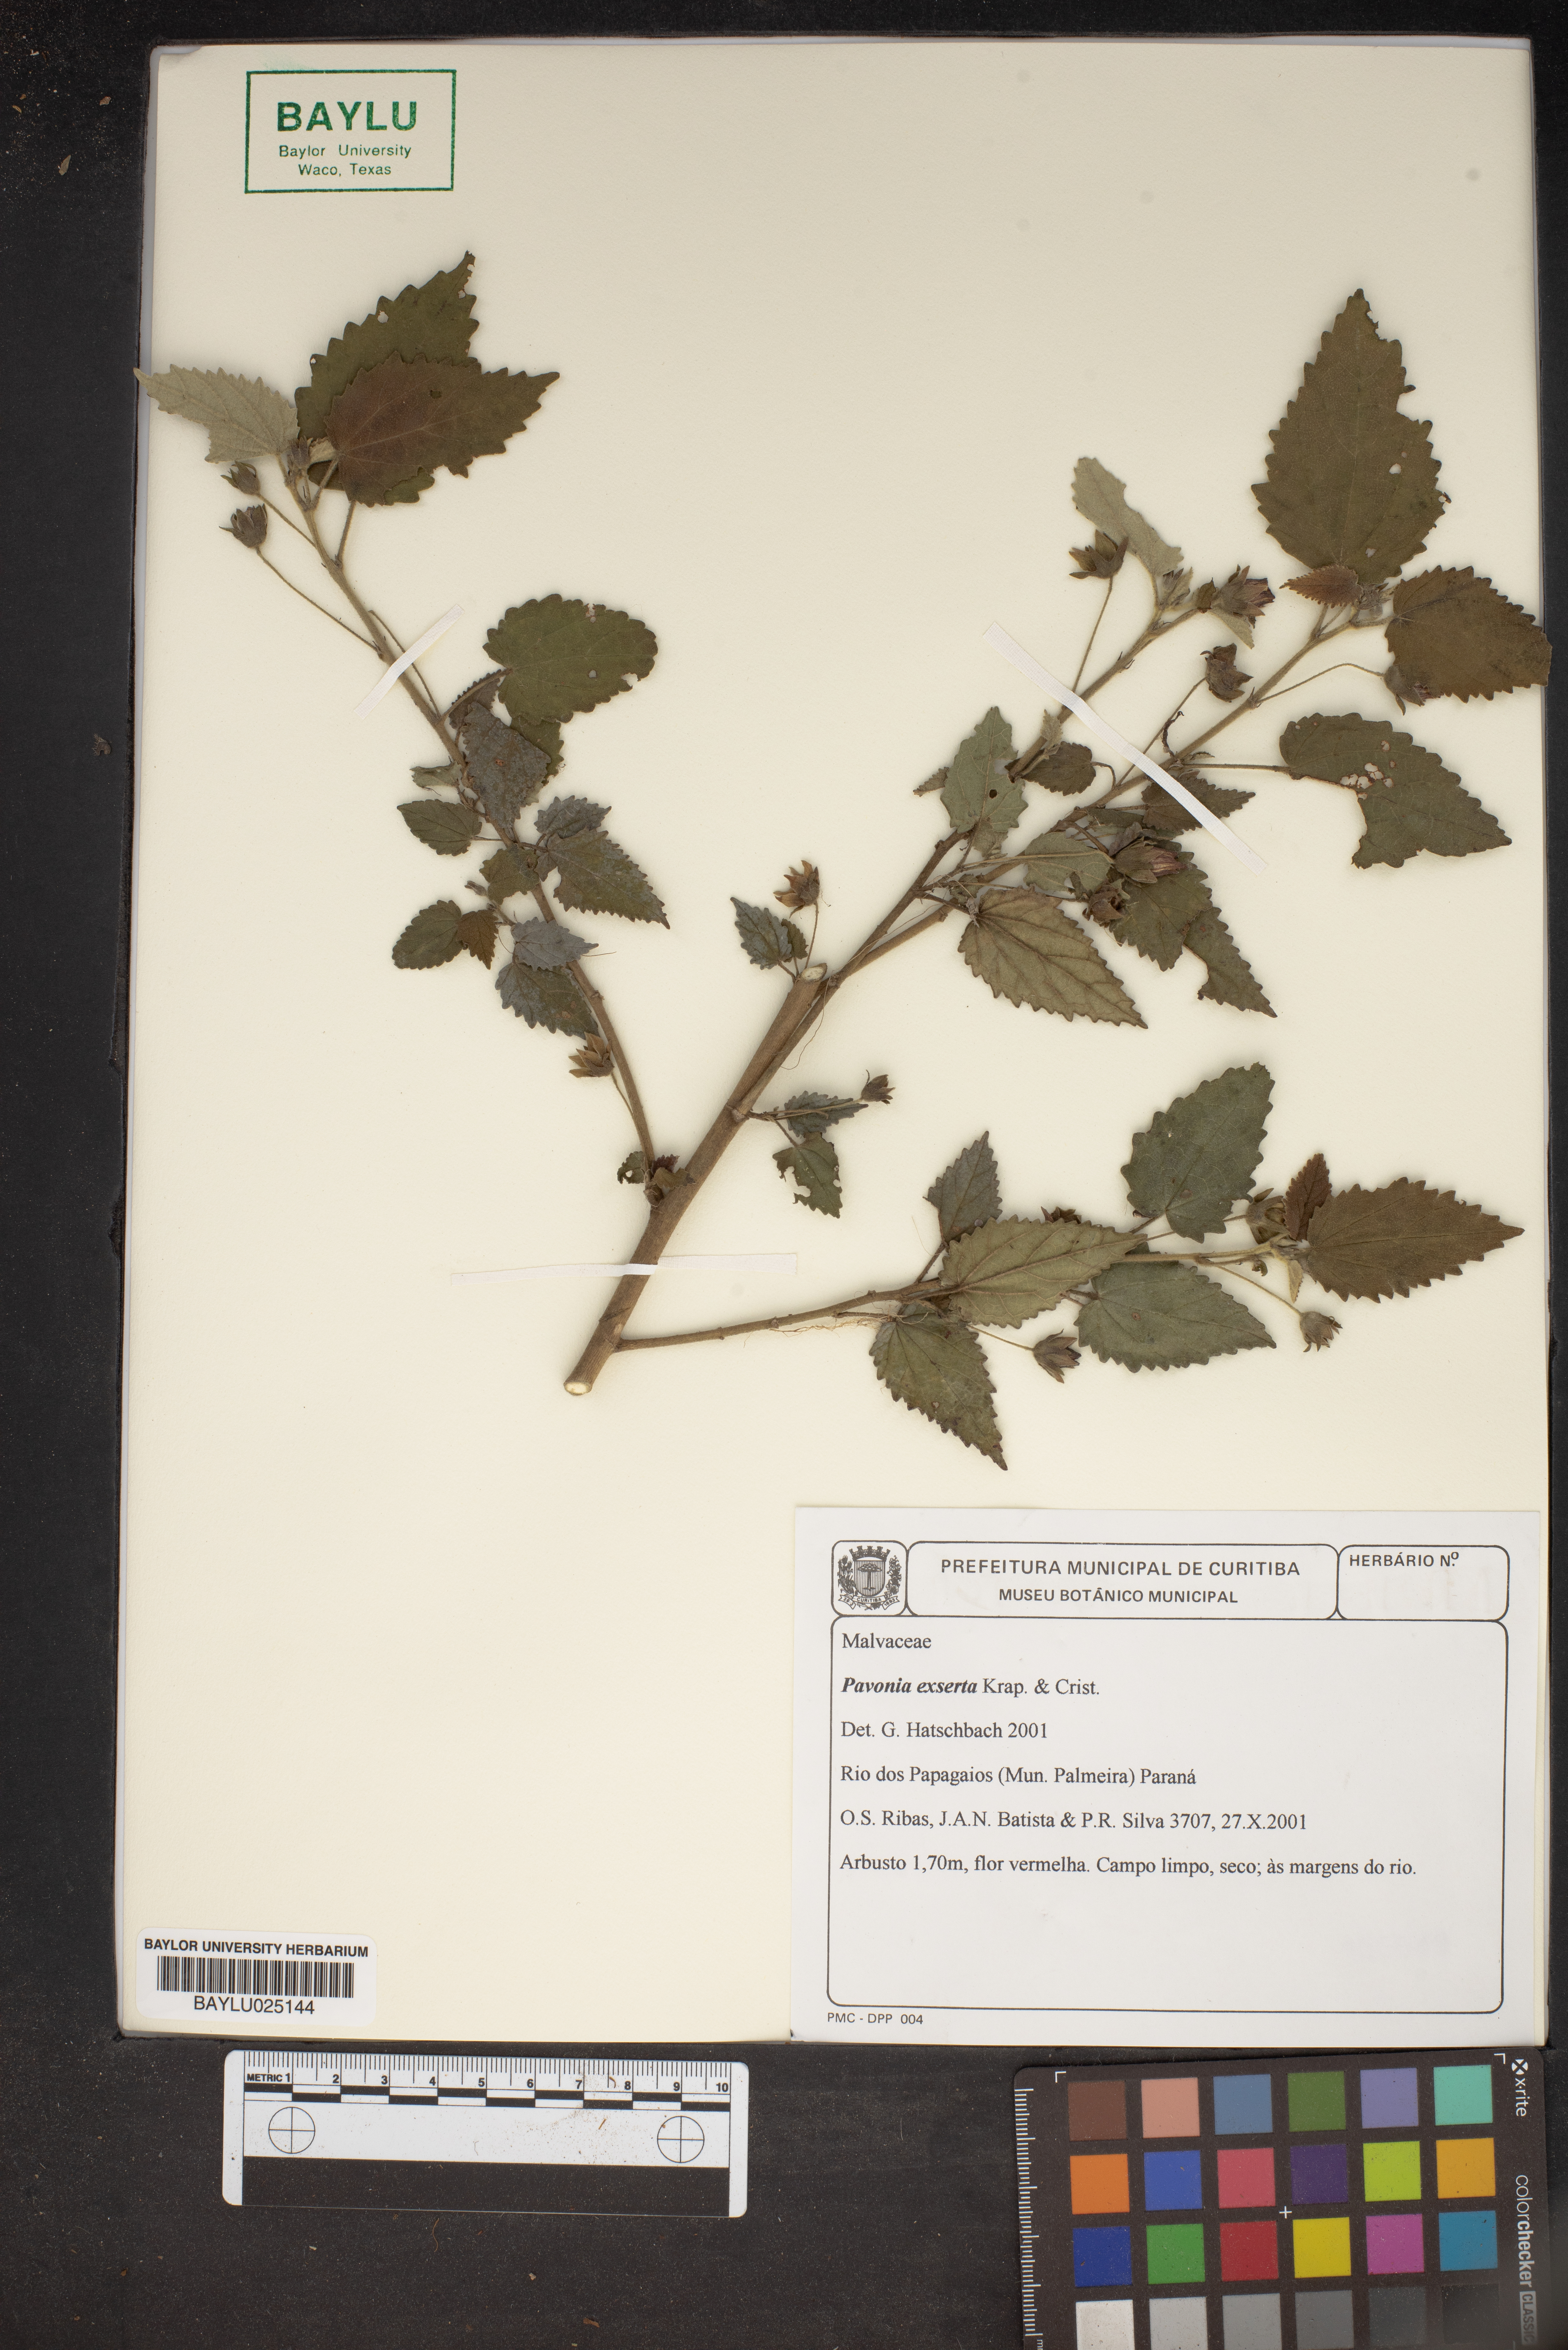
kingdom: Plantae
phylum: Tracheophyta
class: Magnoliopsida
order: Malvales
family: Malvaceae
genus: Pavonia
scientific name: Pavonia commutata
